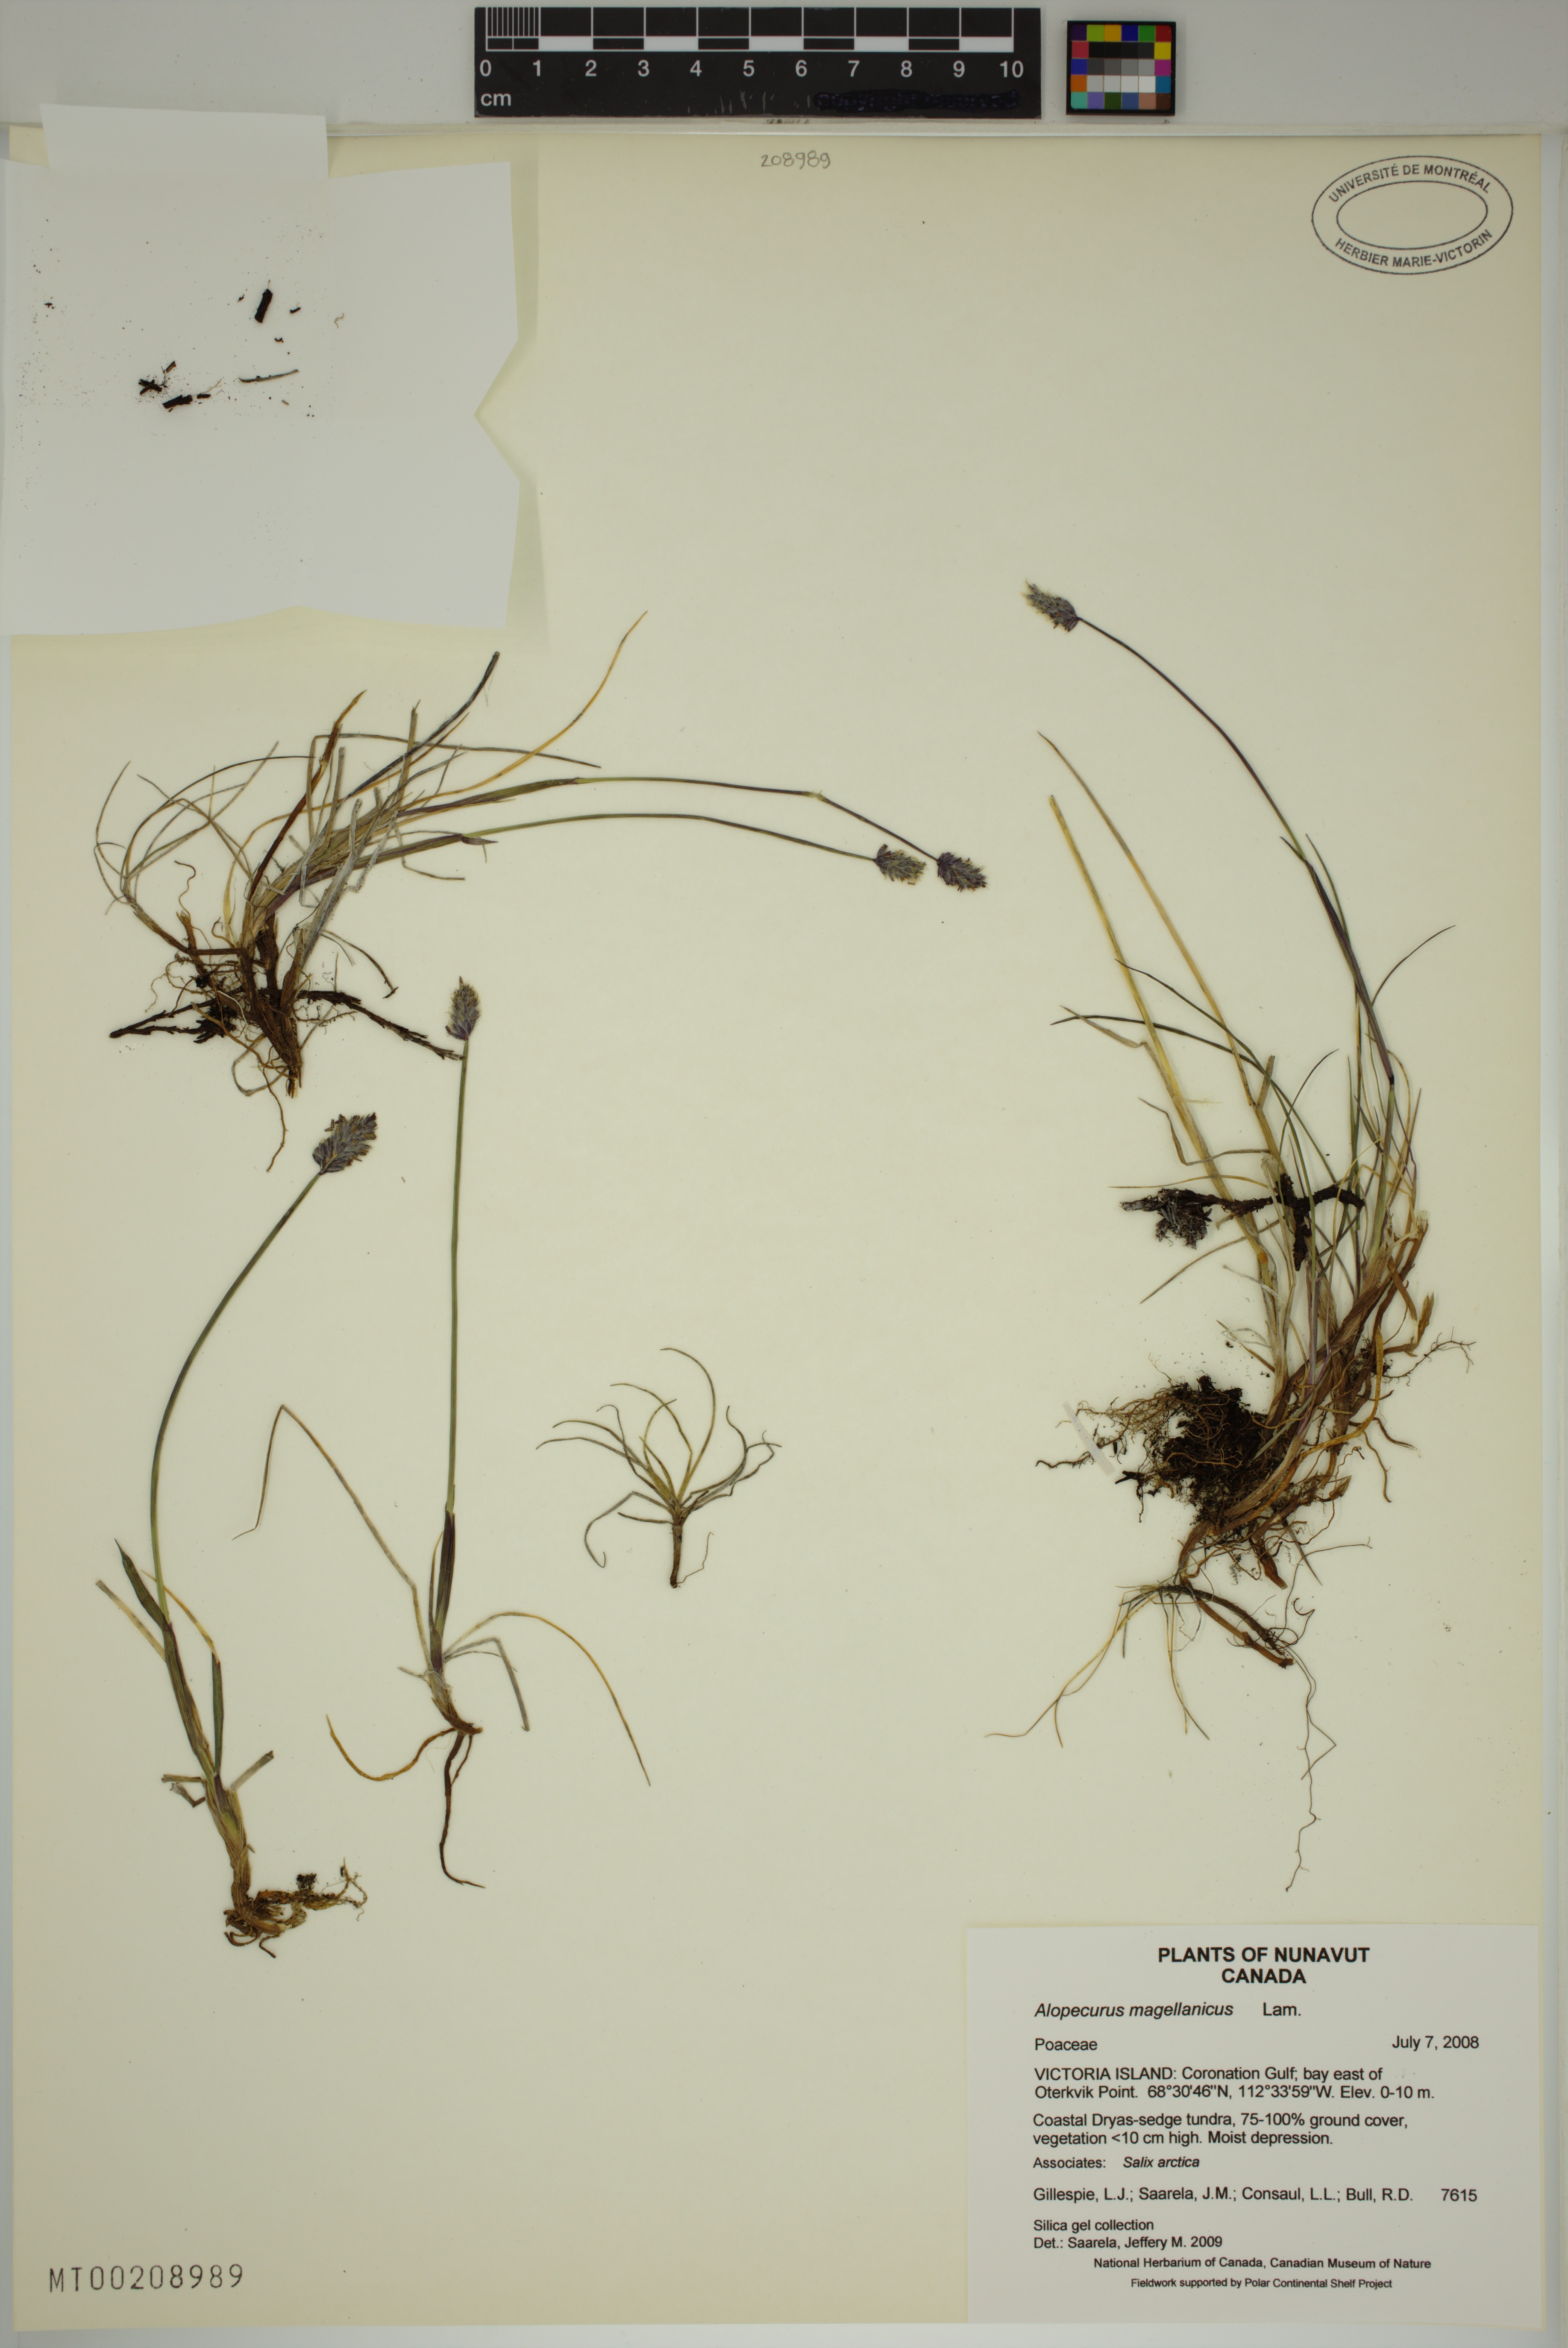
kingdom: Plantae
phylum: Tracheophyta
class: Liliopsida
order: Poales
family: Poaceae
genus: Alopecurus
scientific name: Alopecurus magellanicus
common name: Alpine foxtail
